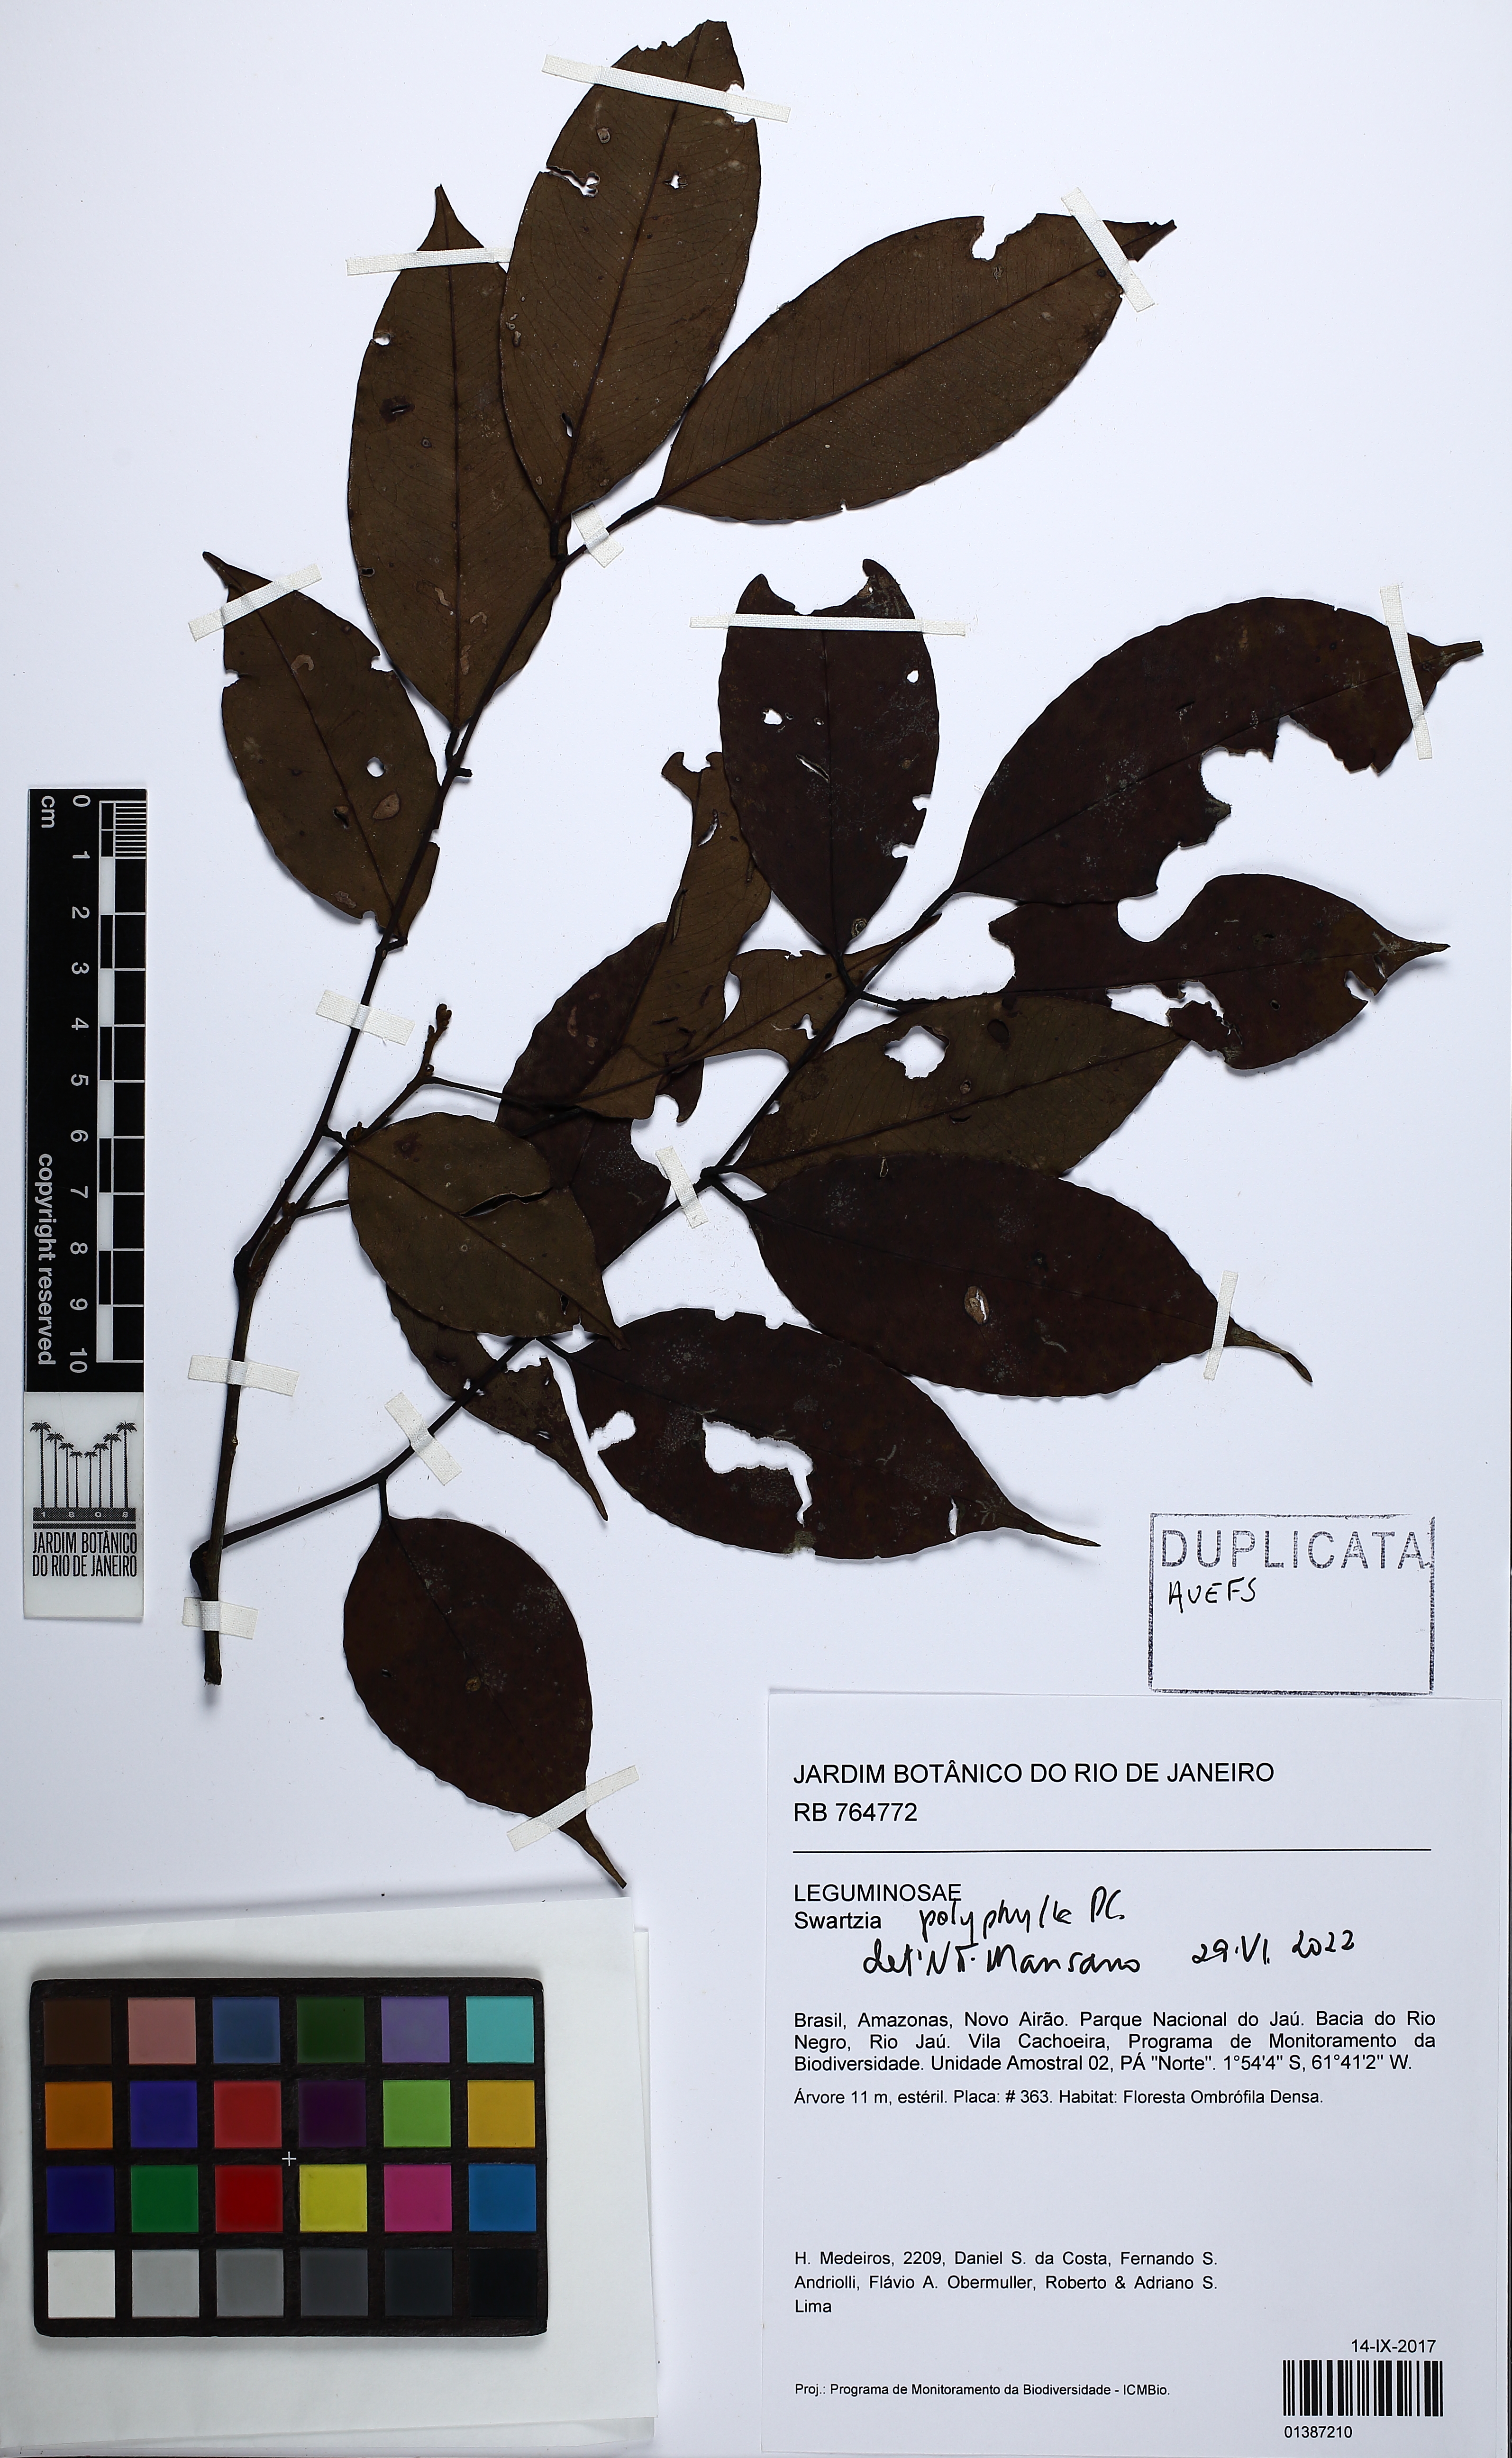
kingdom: Plantae
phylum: Tracheophyta
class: Magnoliopsida
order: Fabales
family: Fabaceae
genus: Swartzia
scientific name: Swartzia polyphylla
